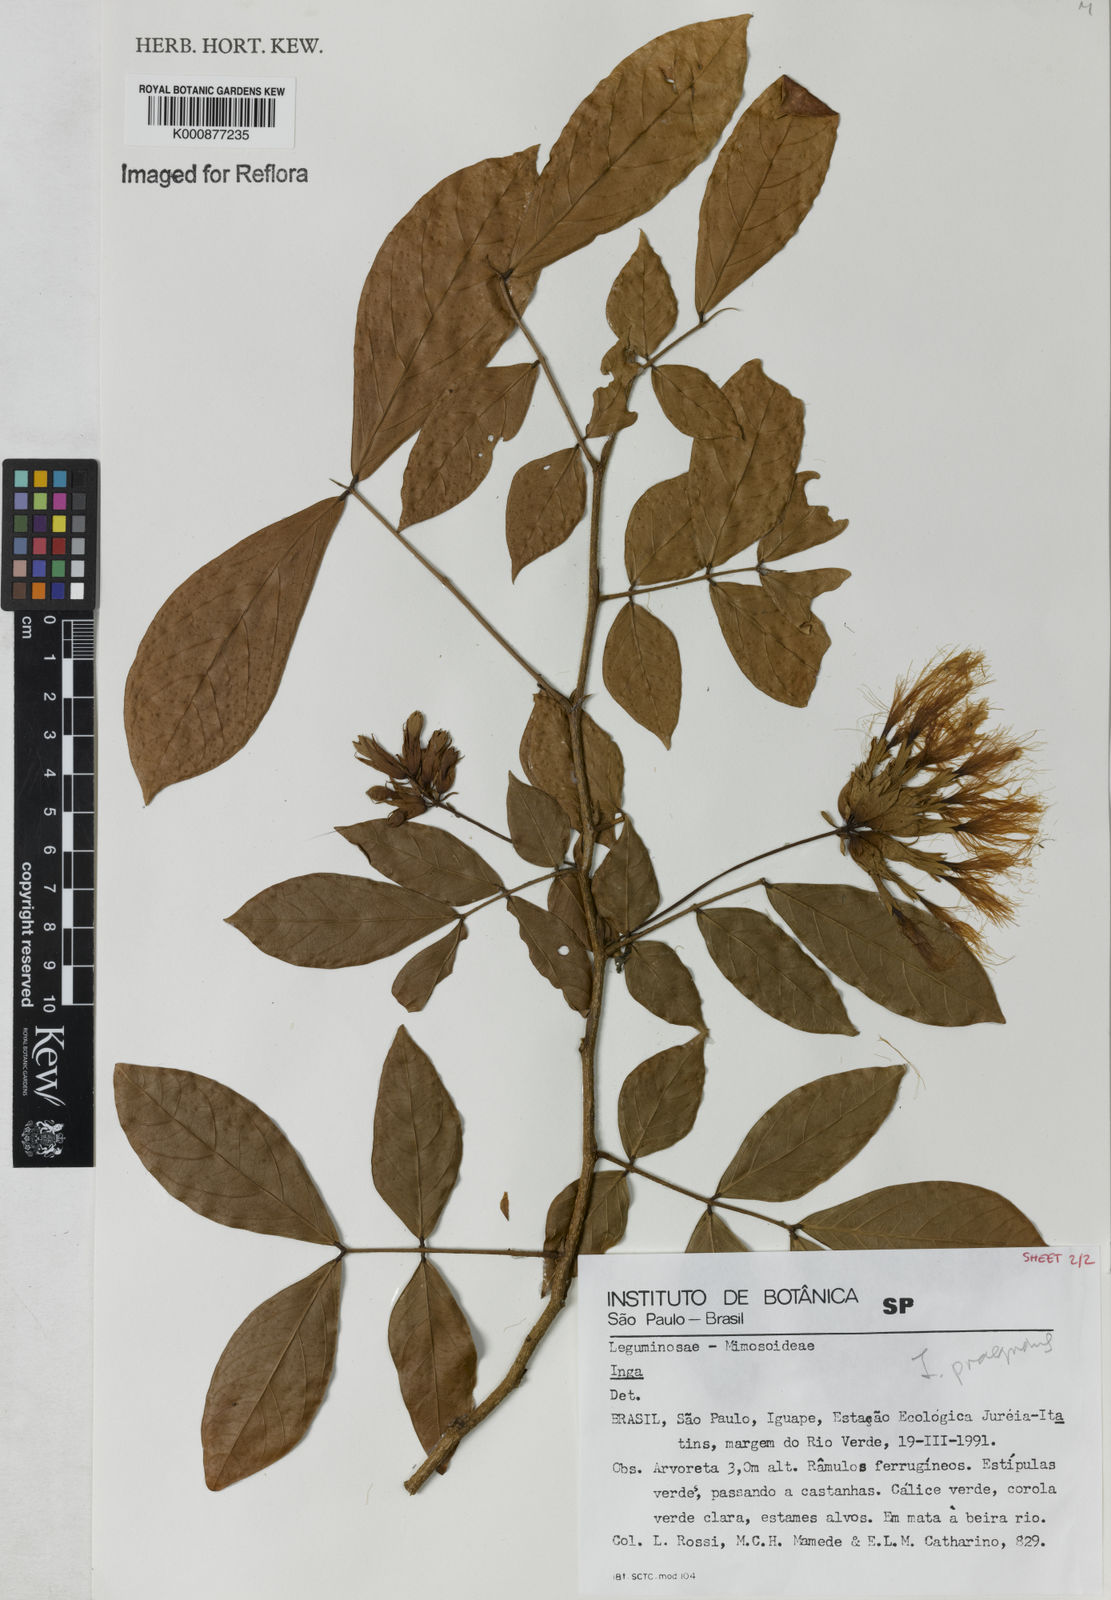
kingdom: Plantae
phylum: Tracheophyta
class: Magnoliopsida
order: Fabales
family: Fabaceae
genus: Inga
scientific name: Inga praegnans
